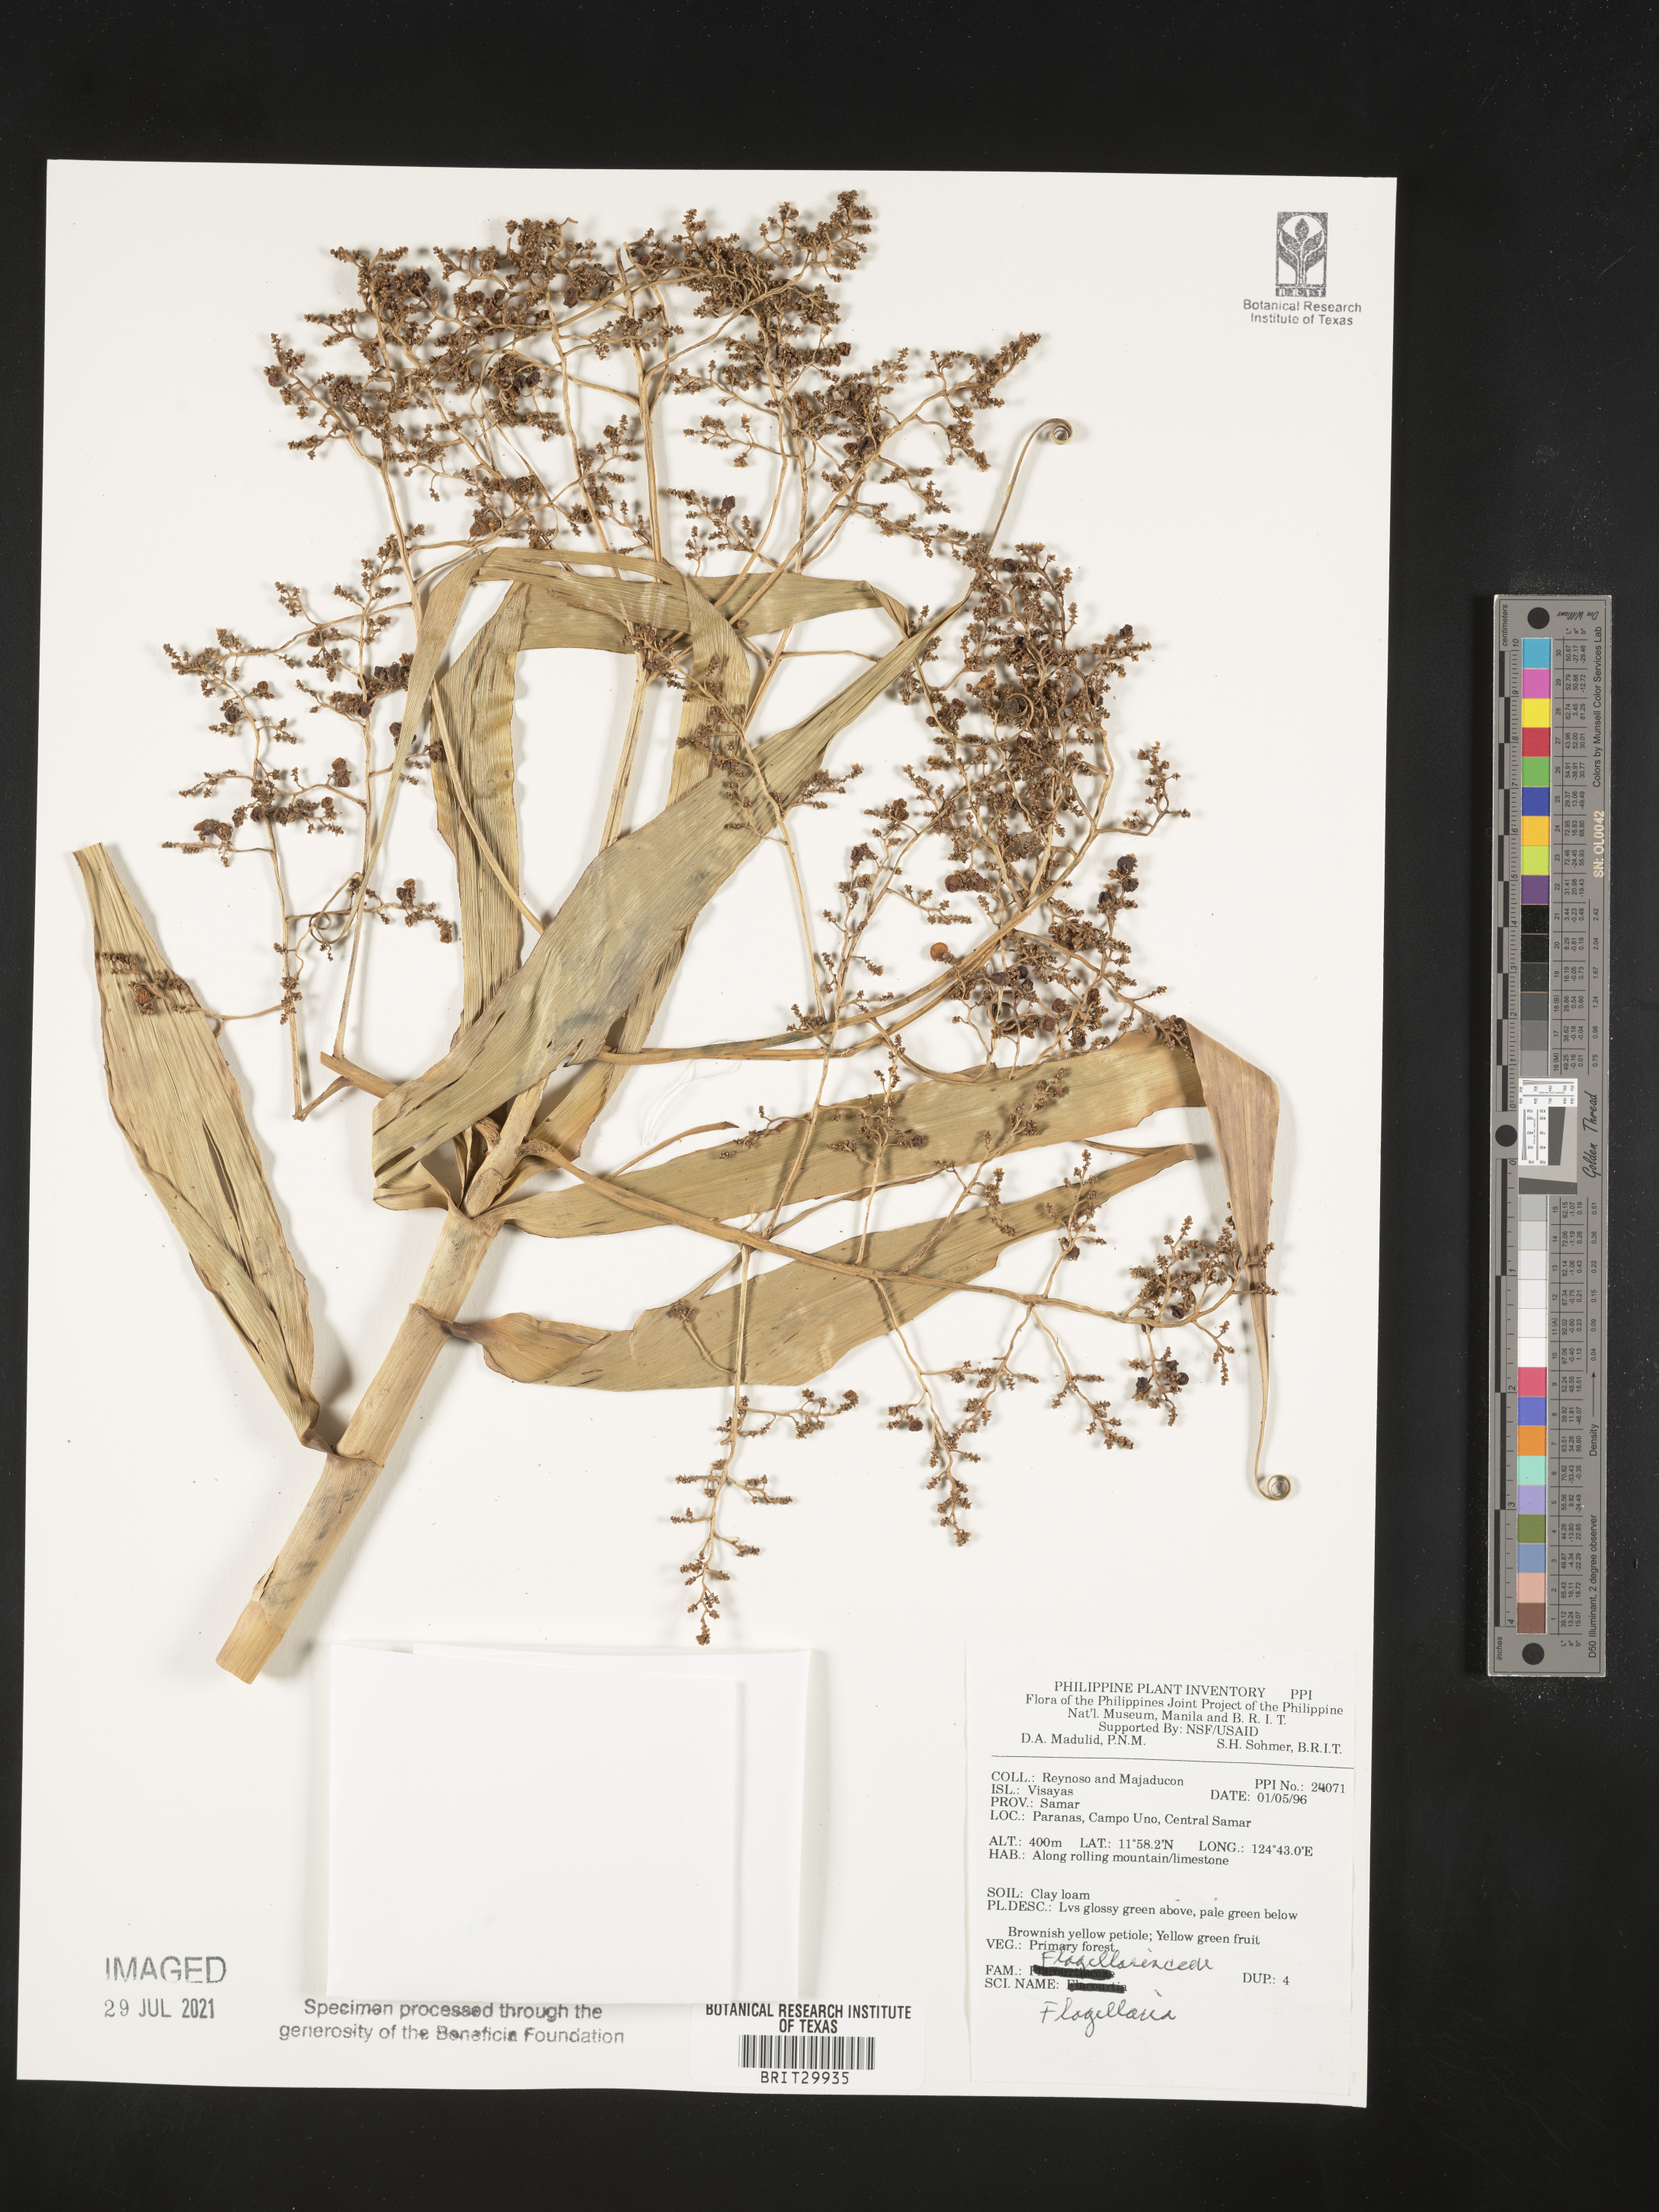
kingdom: Plantae
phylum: Tracheophyta
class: Liliopsida
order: Poales
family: Flagellariaceae
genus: Flagellaria
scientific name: Flagellaria
